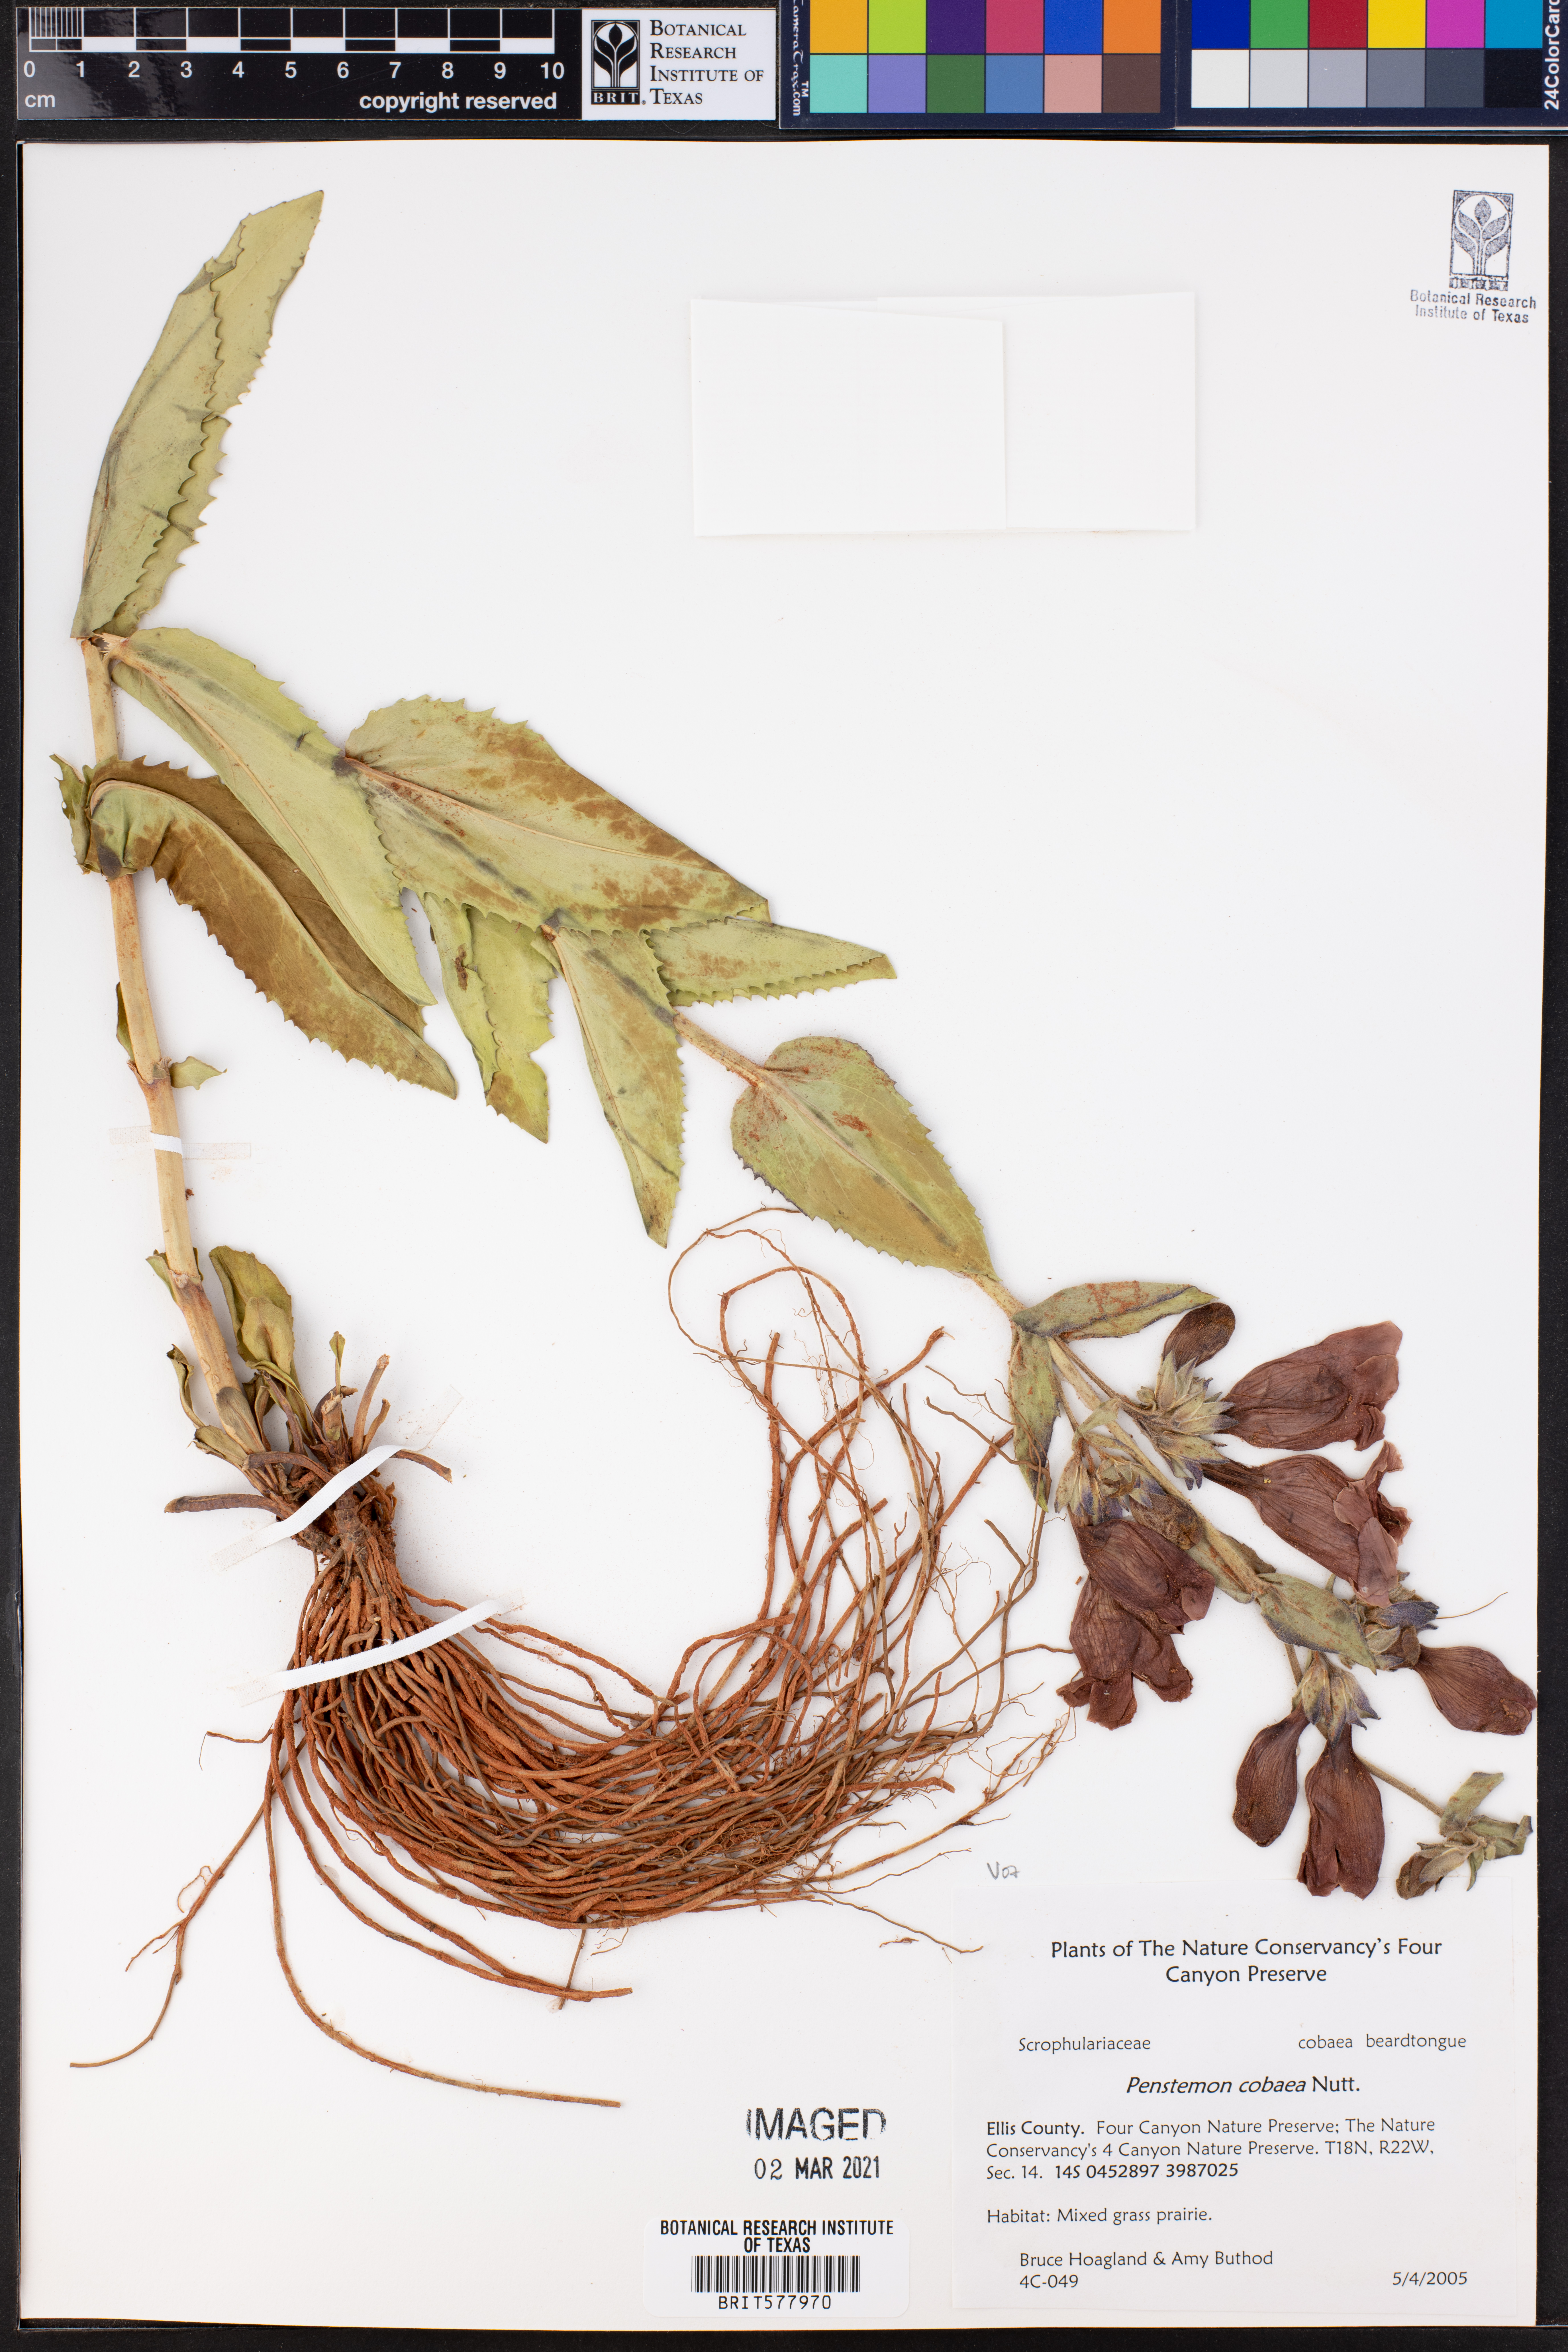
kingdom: Plantae
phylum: Tracheophyta
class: Magnoliopsida
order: Lamiales
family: Plantaginaceae
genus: Penstemon
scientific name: Penstemon cobaea
